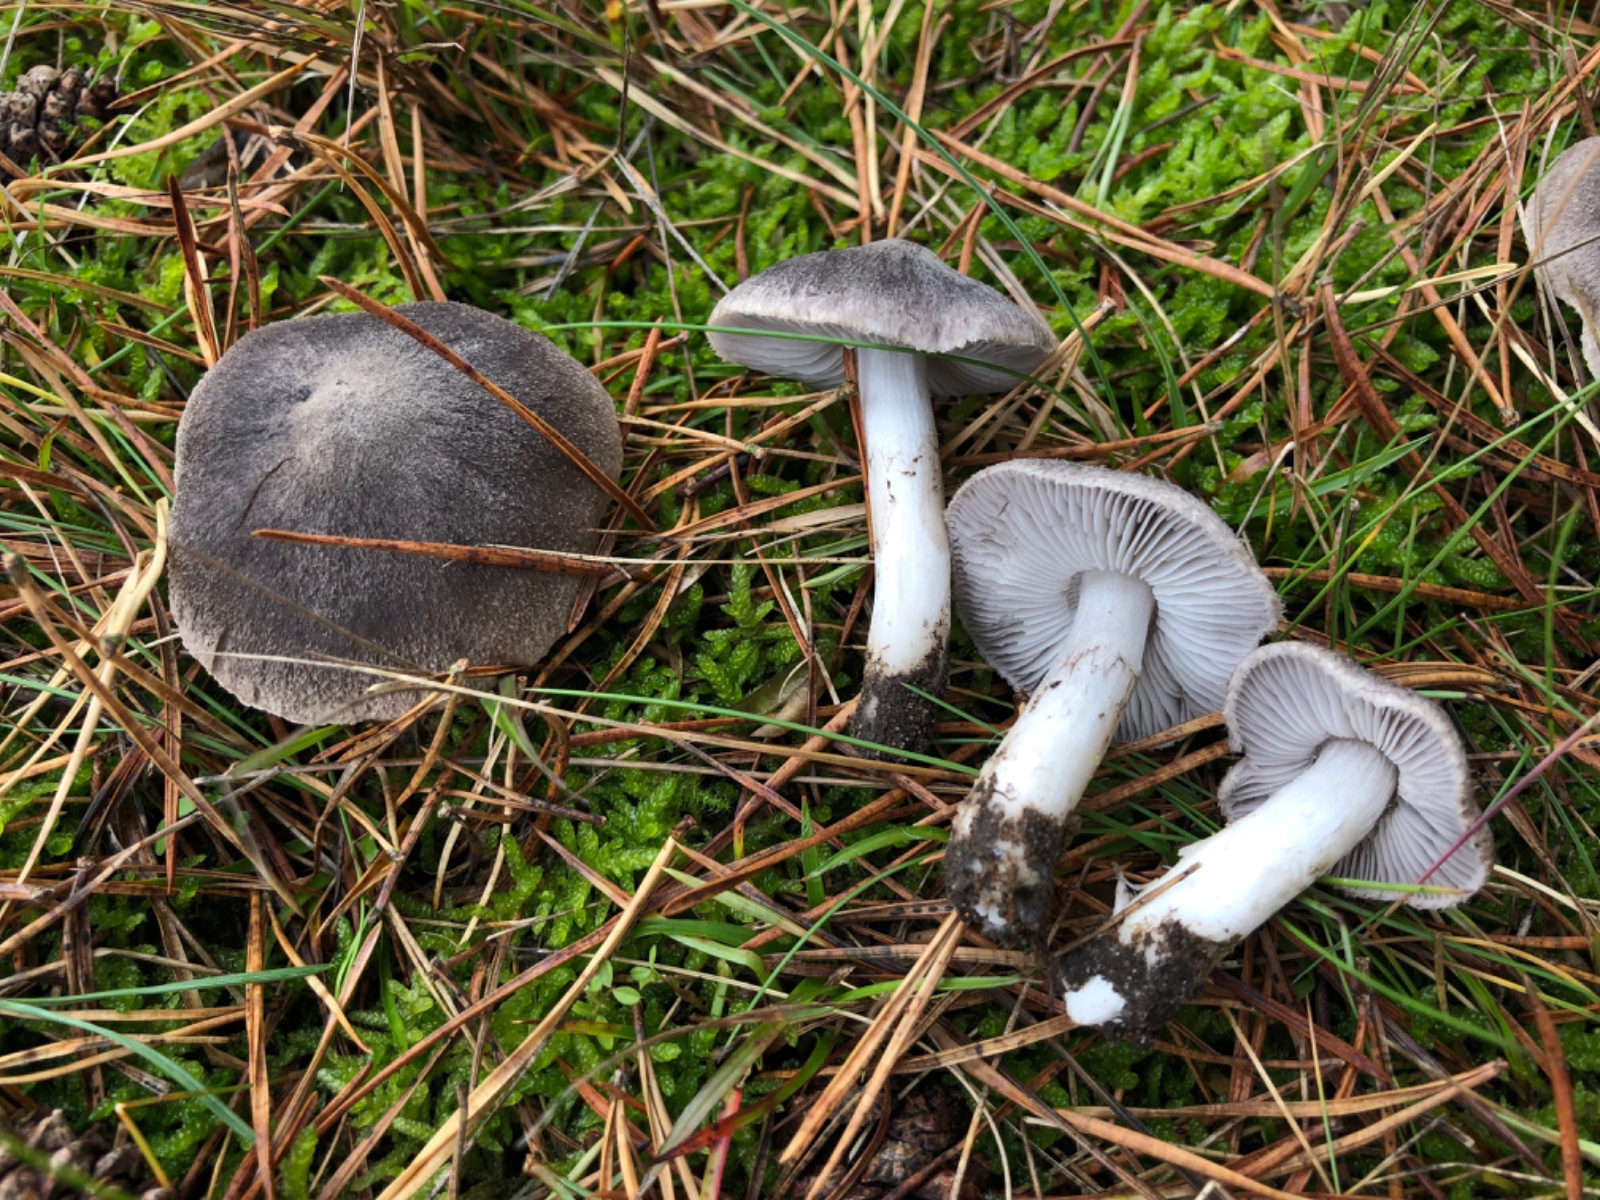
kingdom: Fungi
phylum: Basidiomycota
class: Agaricomycetes
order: Agaricales
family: Tricholomataceae
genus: Tricholoma
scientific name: Tricholoma terreum
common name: jordfarvet ridderhat
